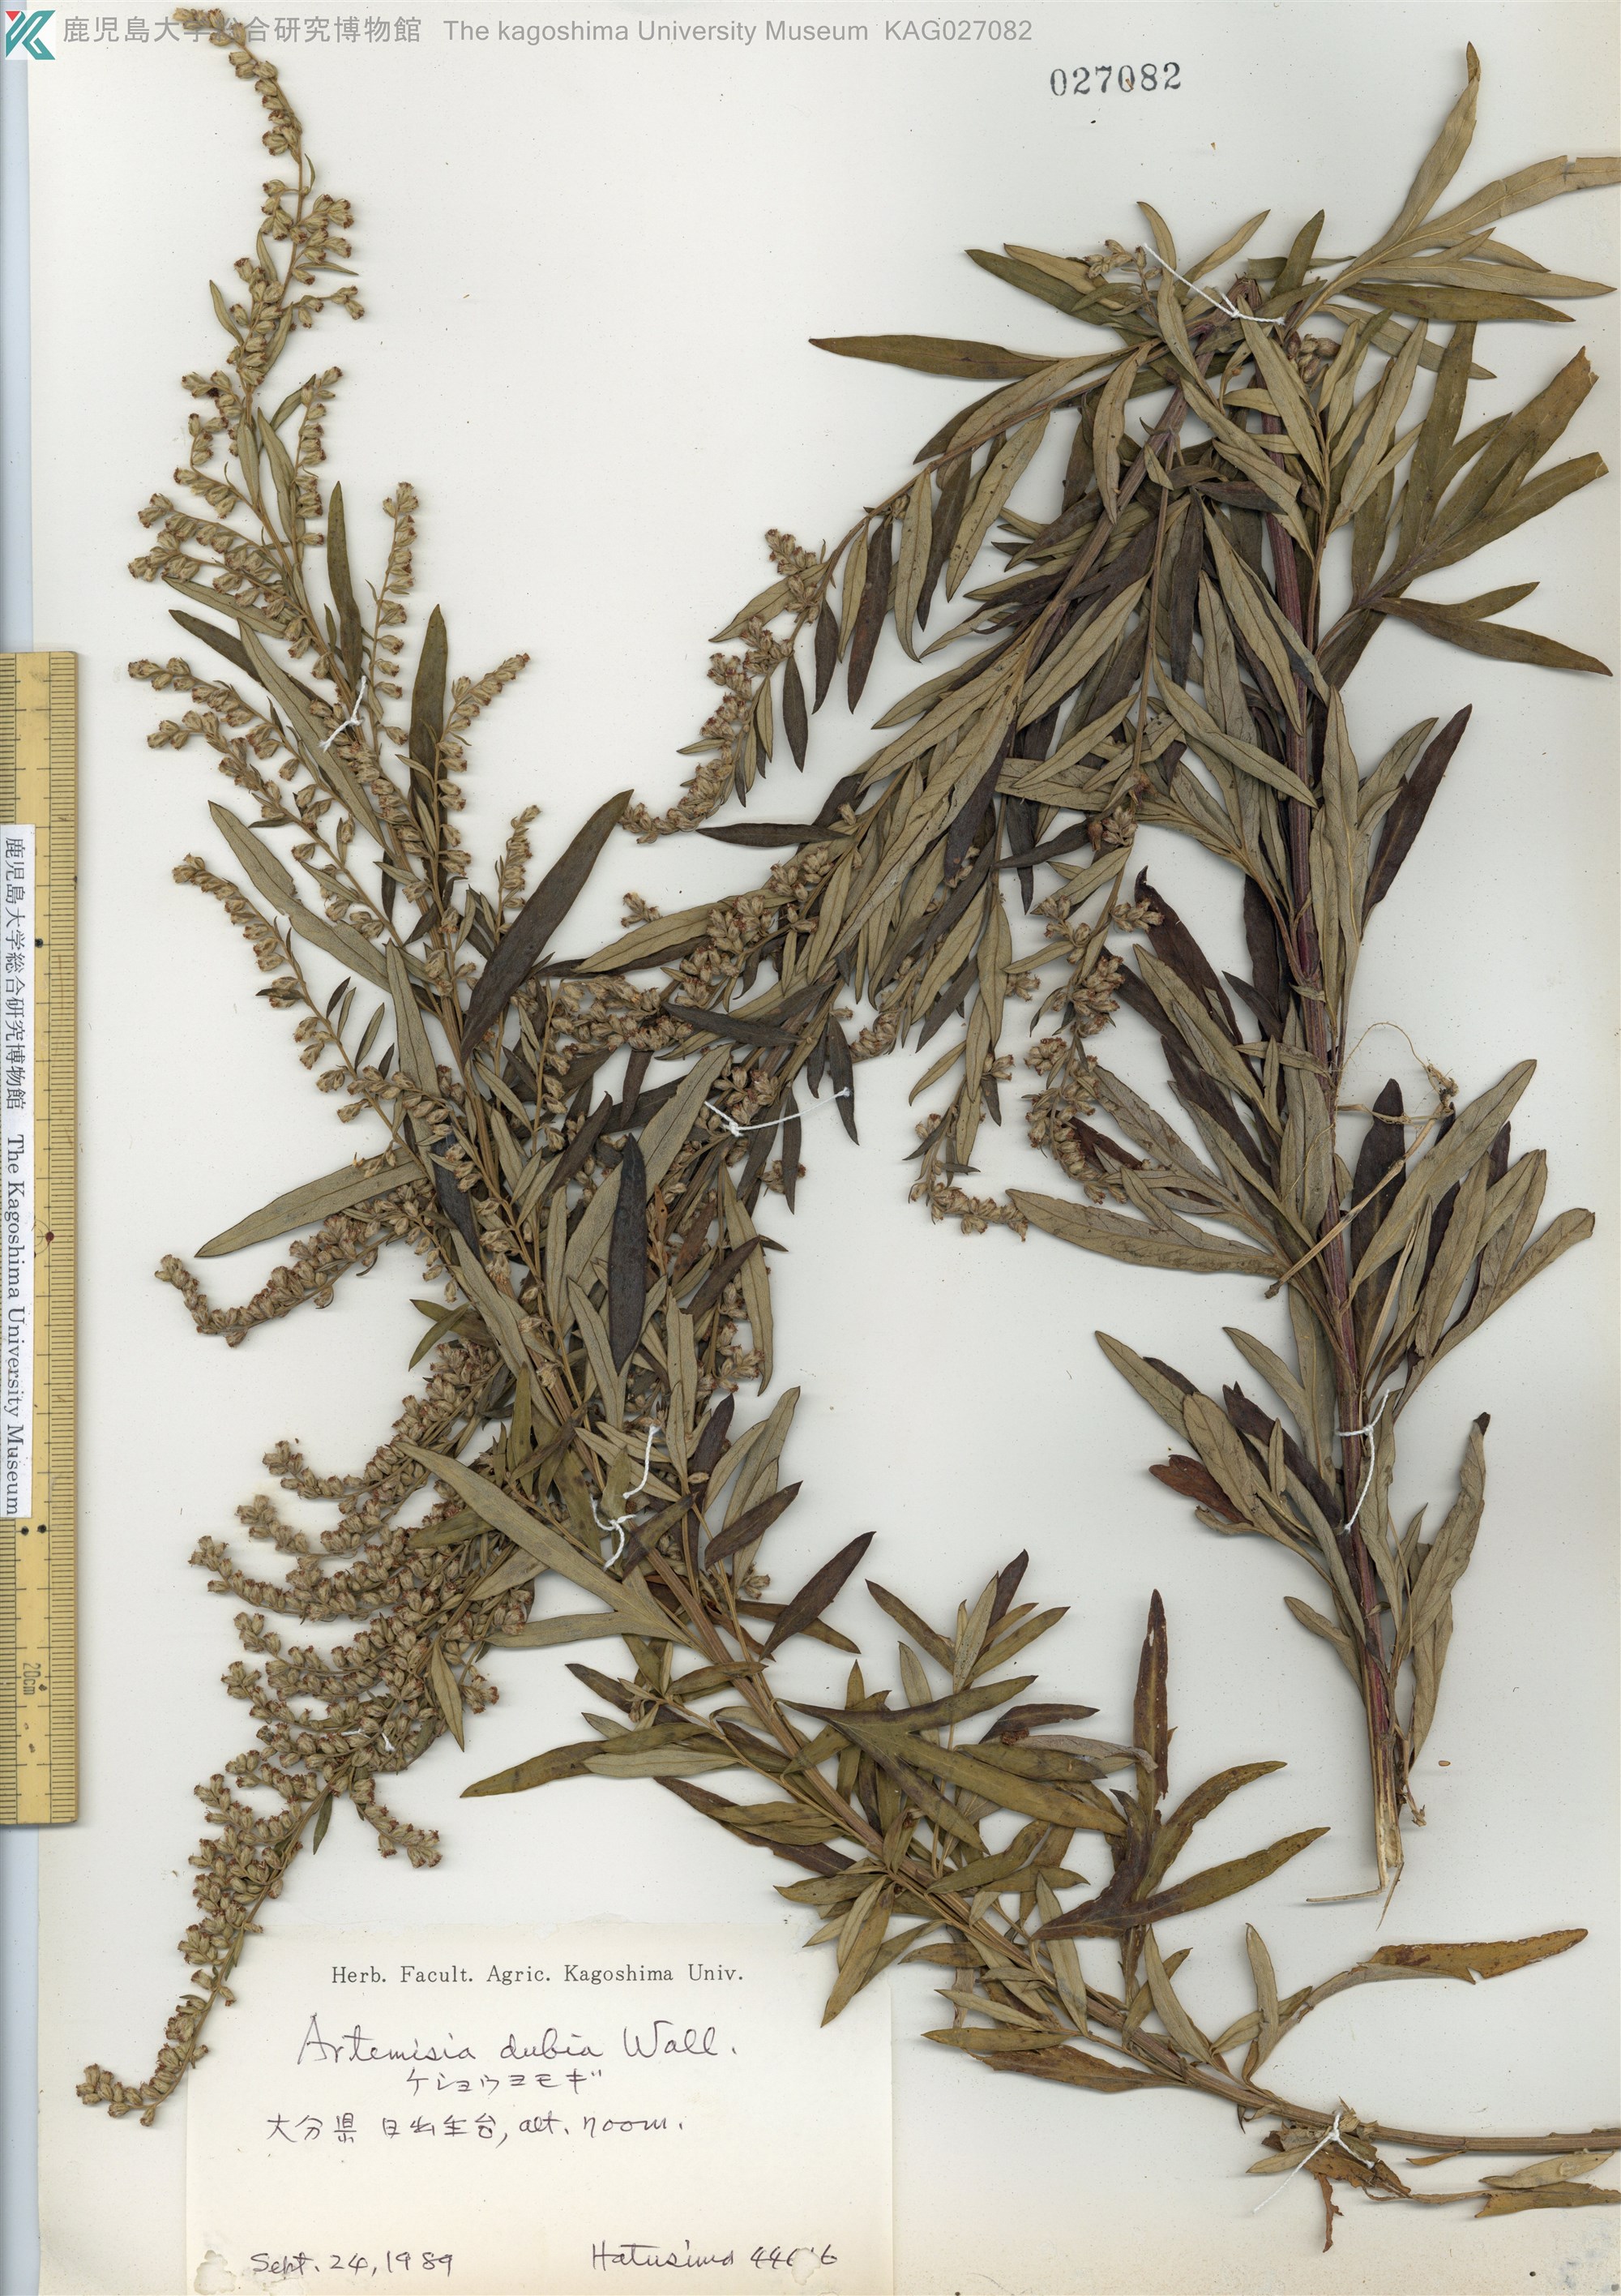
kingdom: Plantae
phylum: Tracheophyta
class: Magnoliopsida
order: Asterales
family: Asteraceae
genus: Artemisia
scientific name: Artemisia umbrosa
